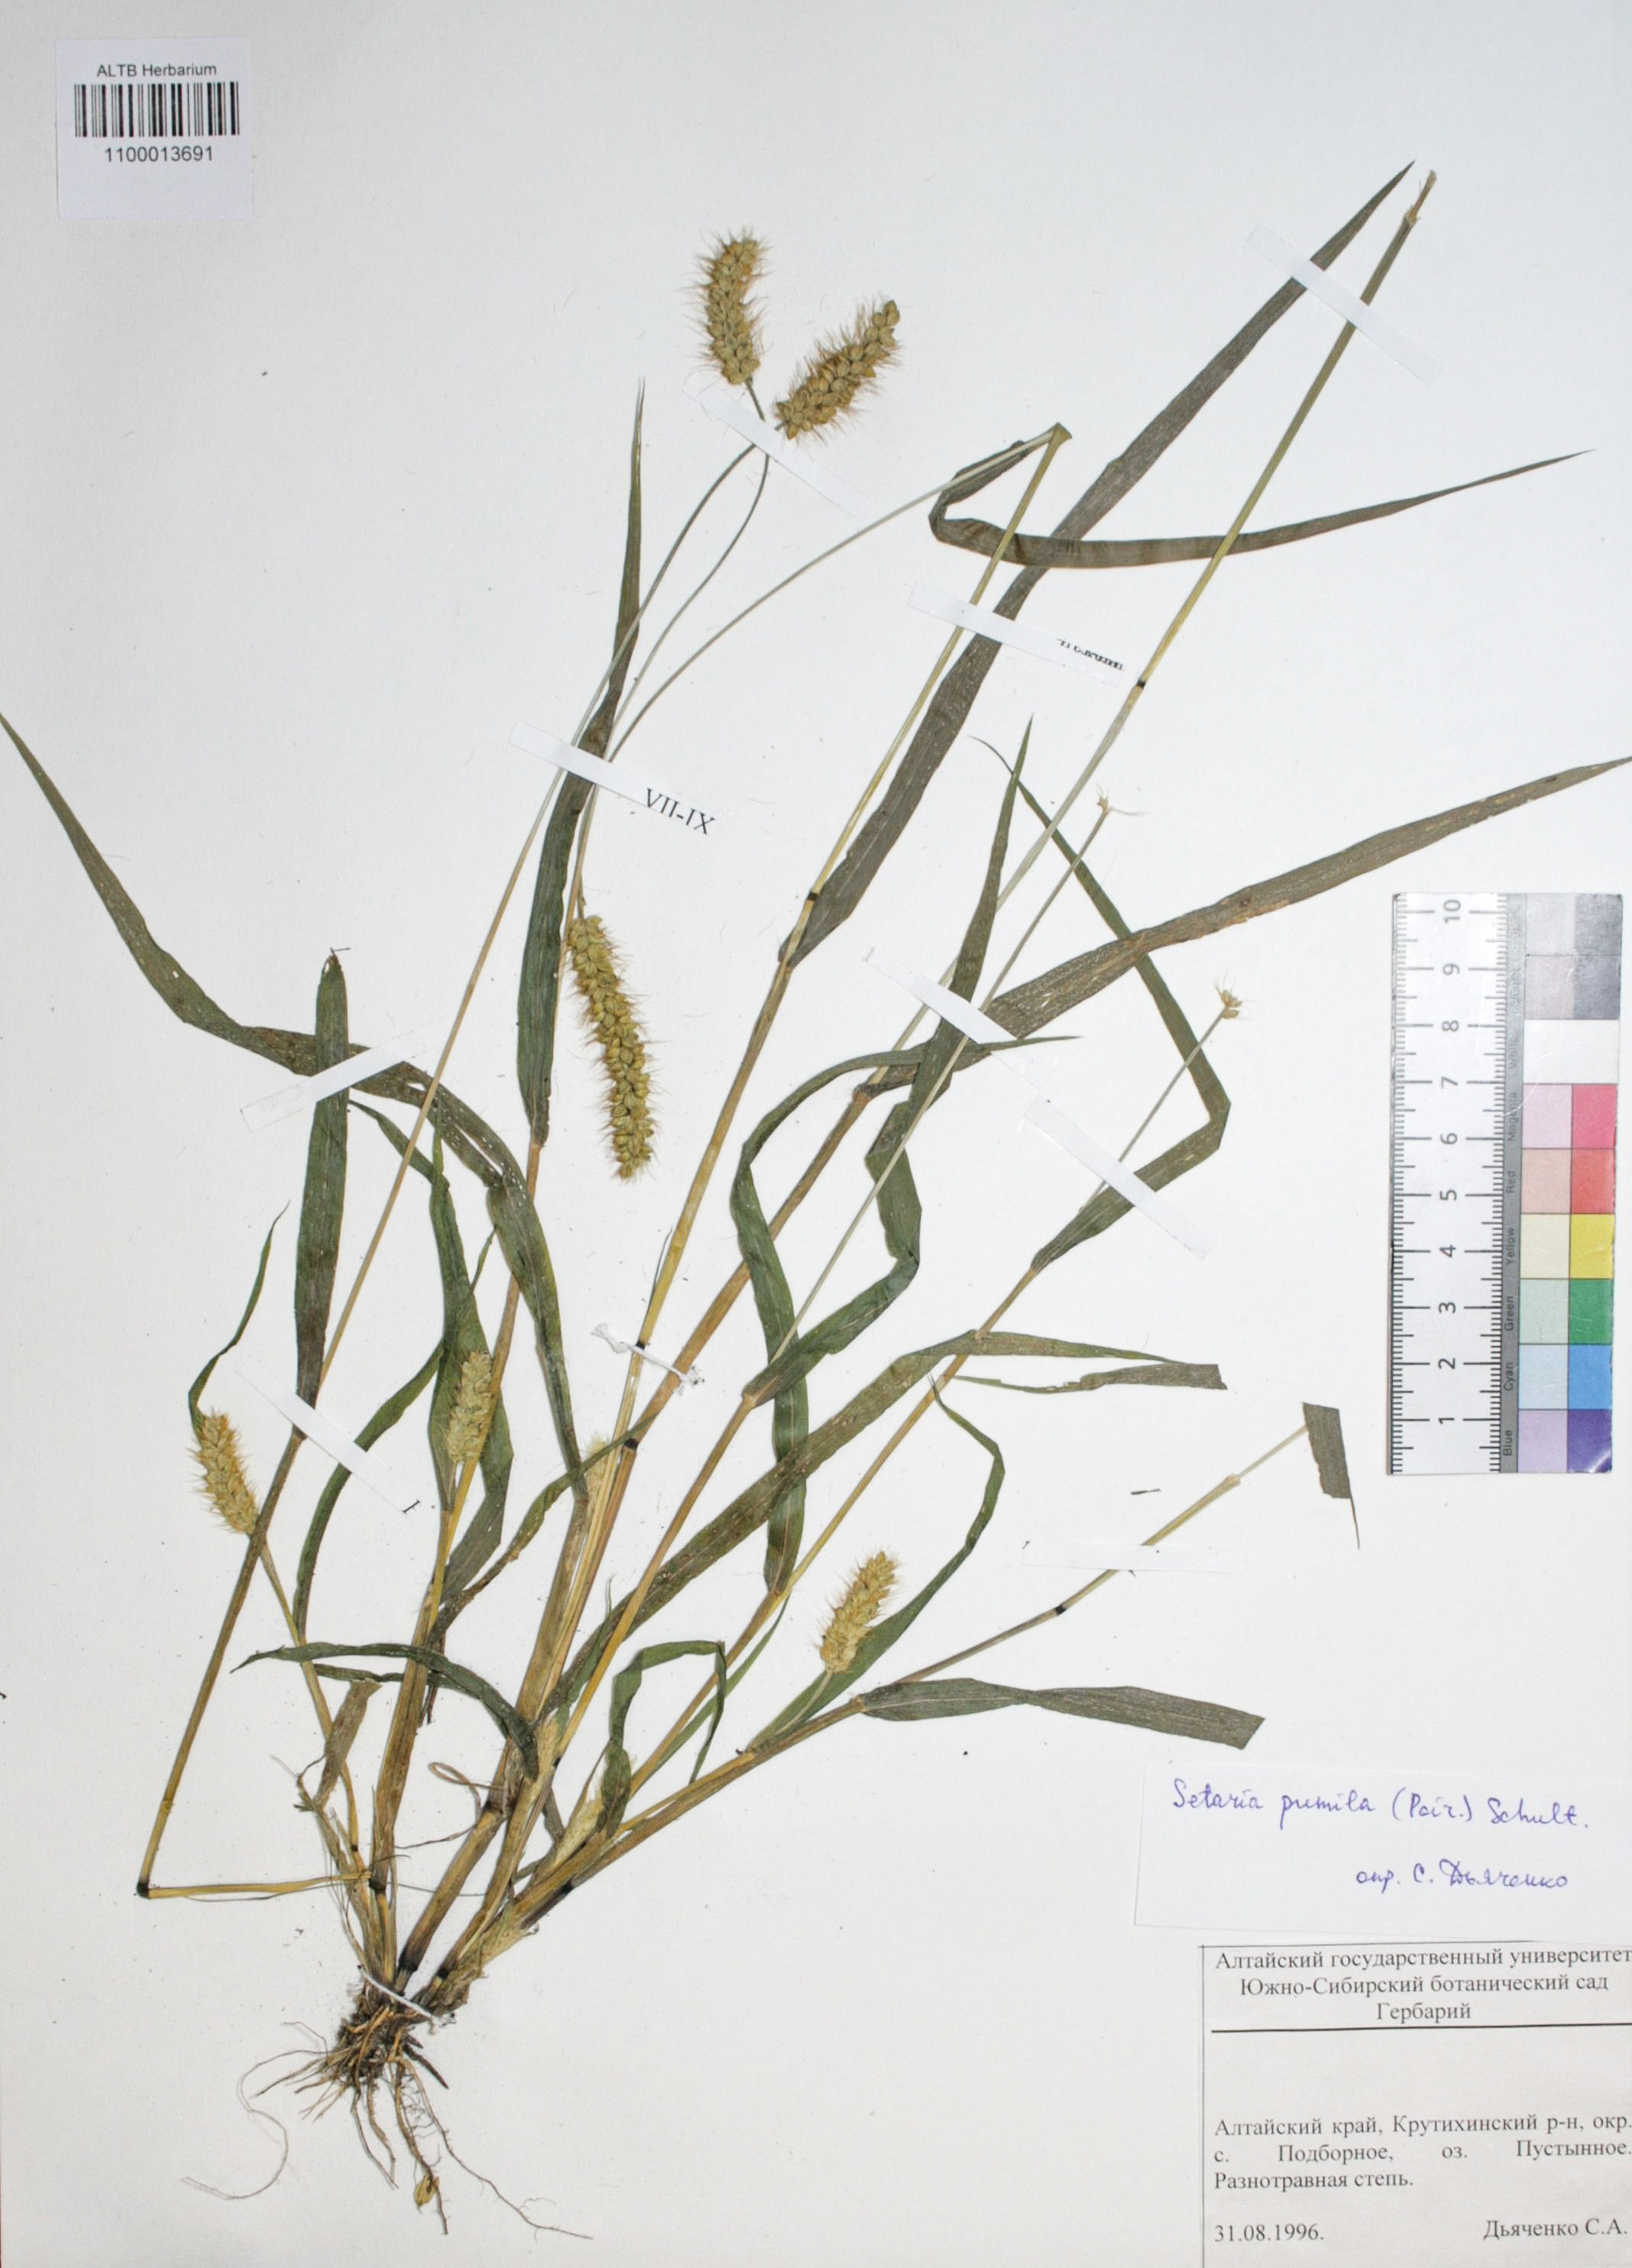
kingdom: Plantae
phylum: Tracheophyta
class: Liliopsida
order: Poales
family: Poaceae
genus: Setaria
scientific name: Setaria pumila
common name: Yellow bristle-grass
